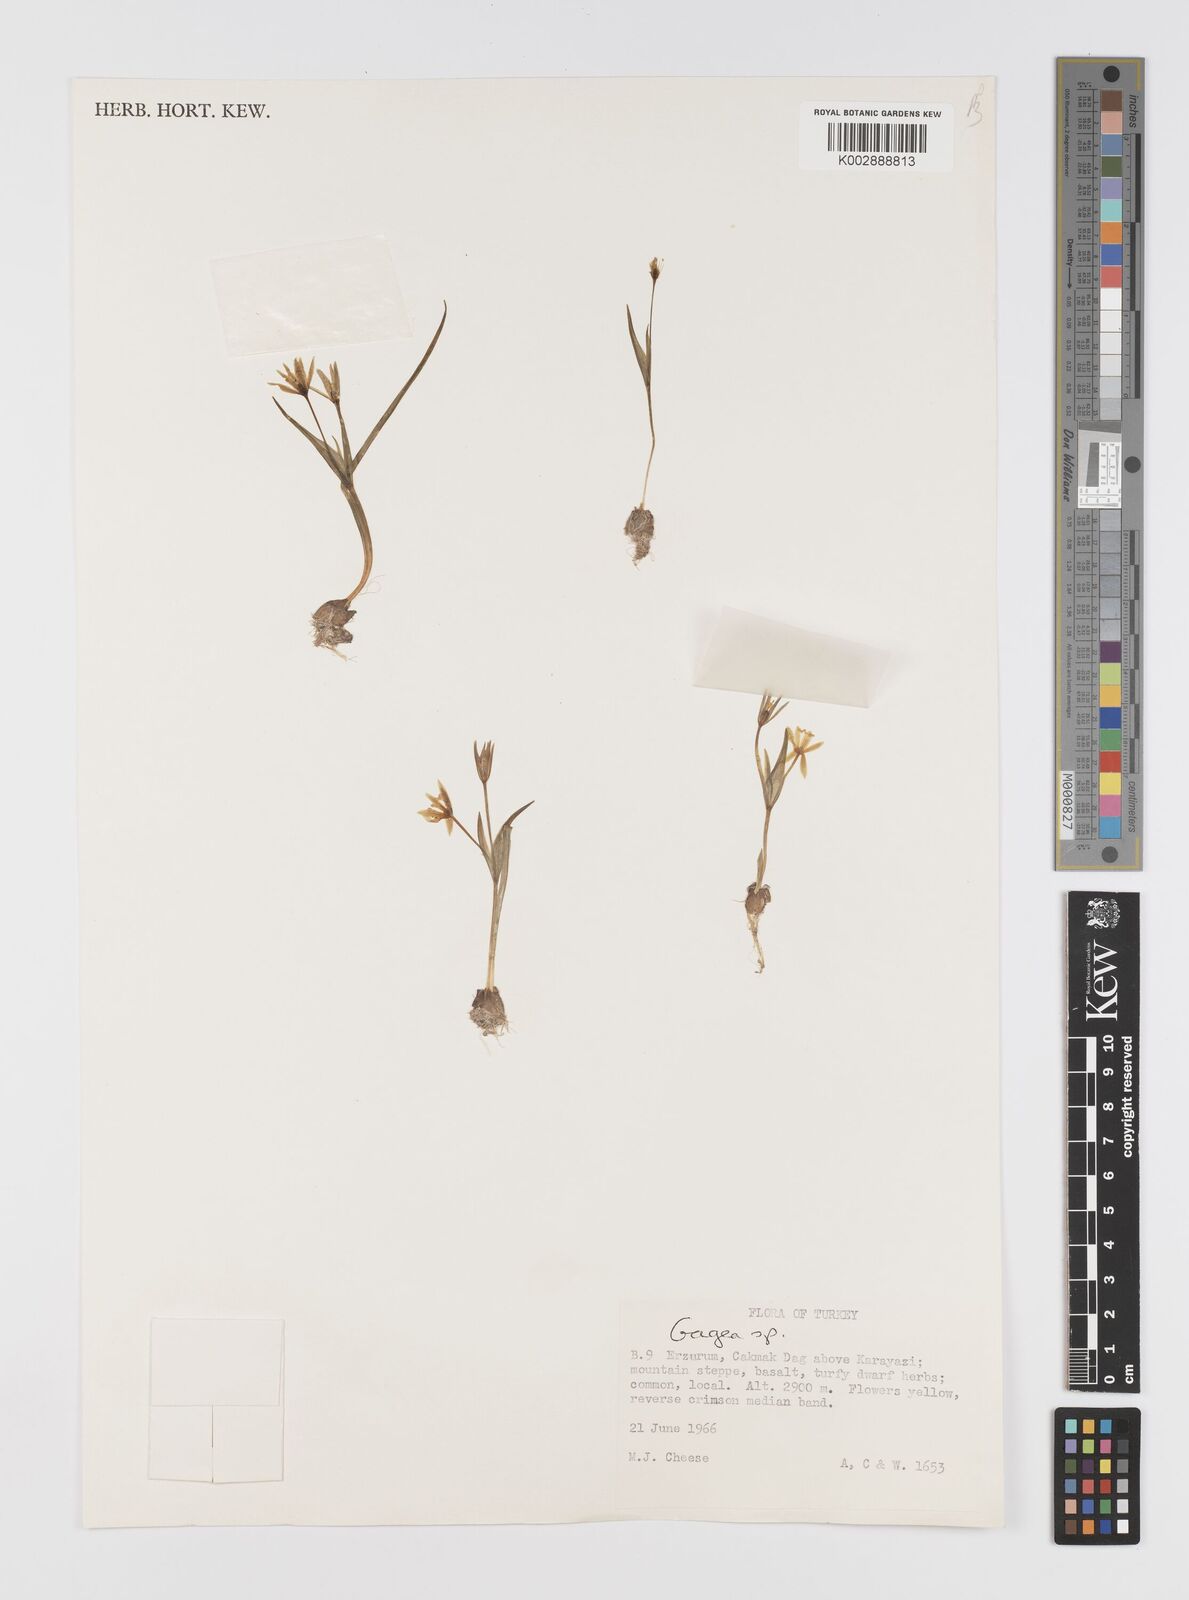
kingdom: Plantae
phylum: Tracheophyta
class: Liliopsida
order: Liliales
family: Liliaceae
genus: Gagea
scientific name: Gagea
